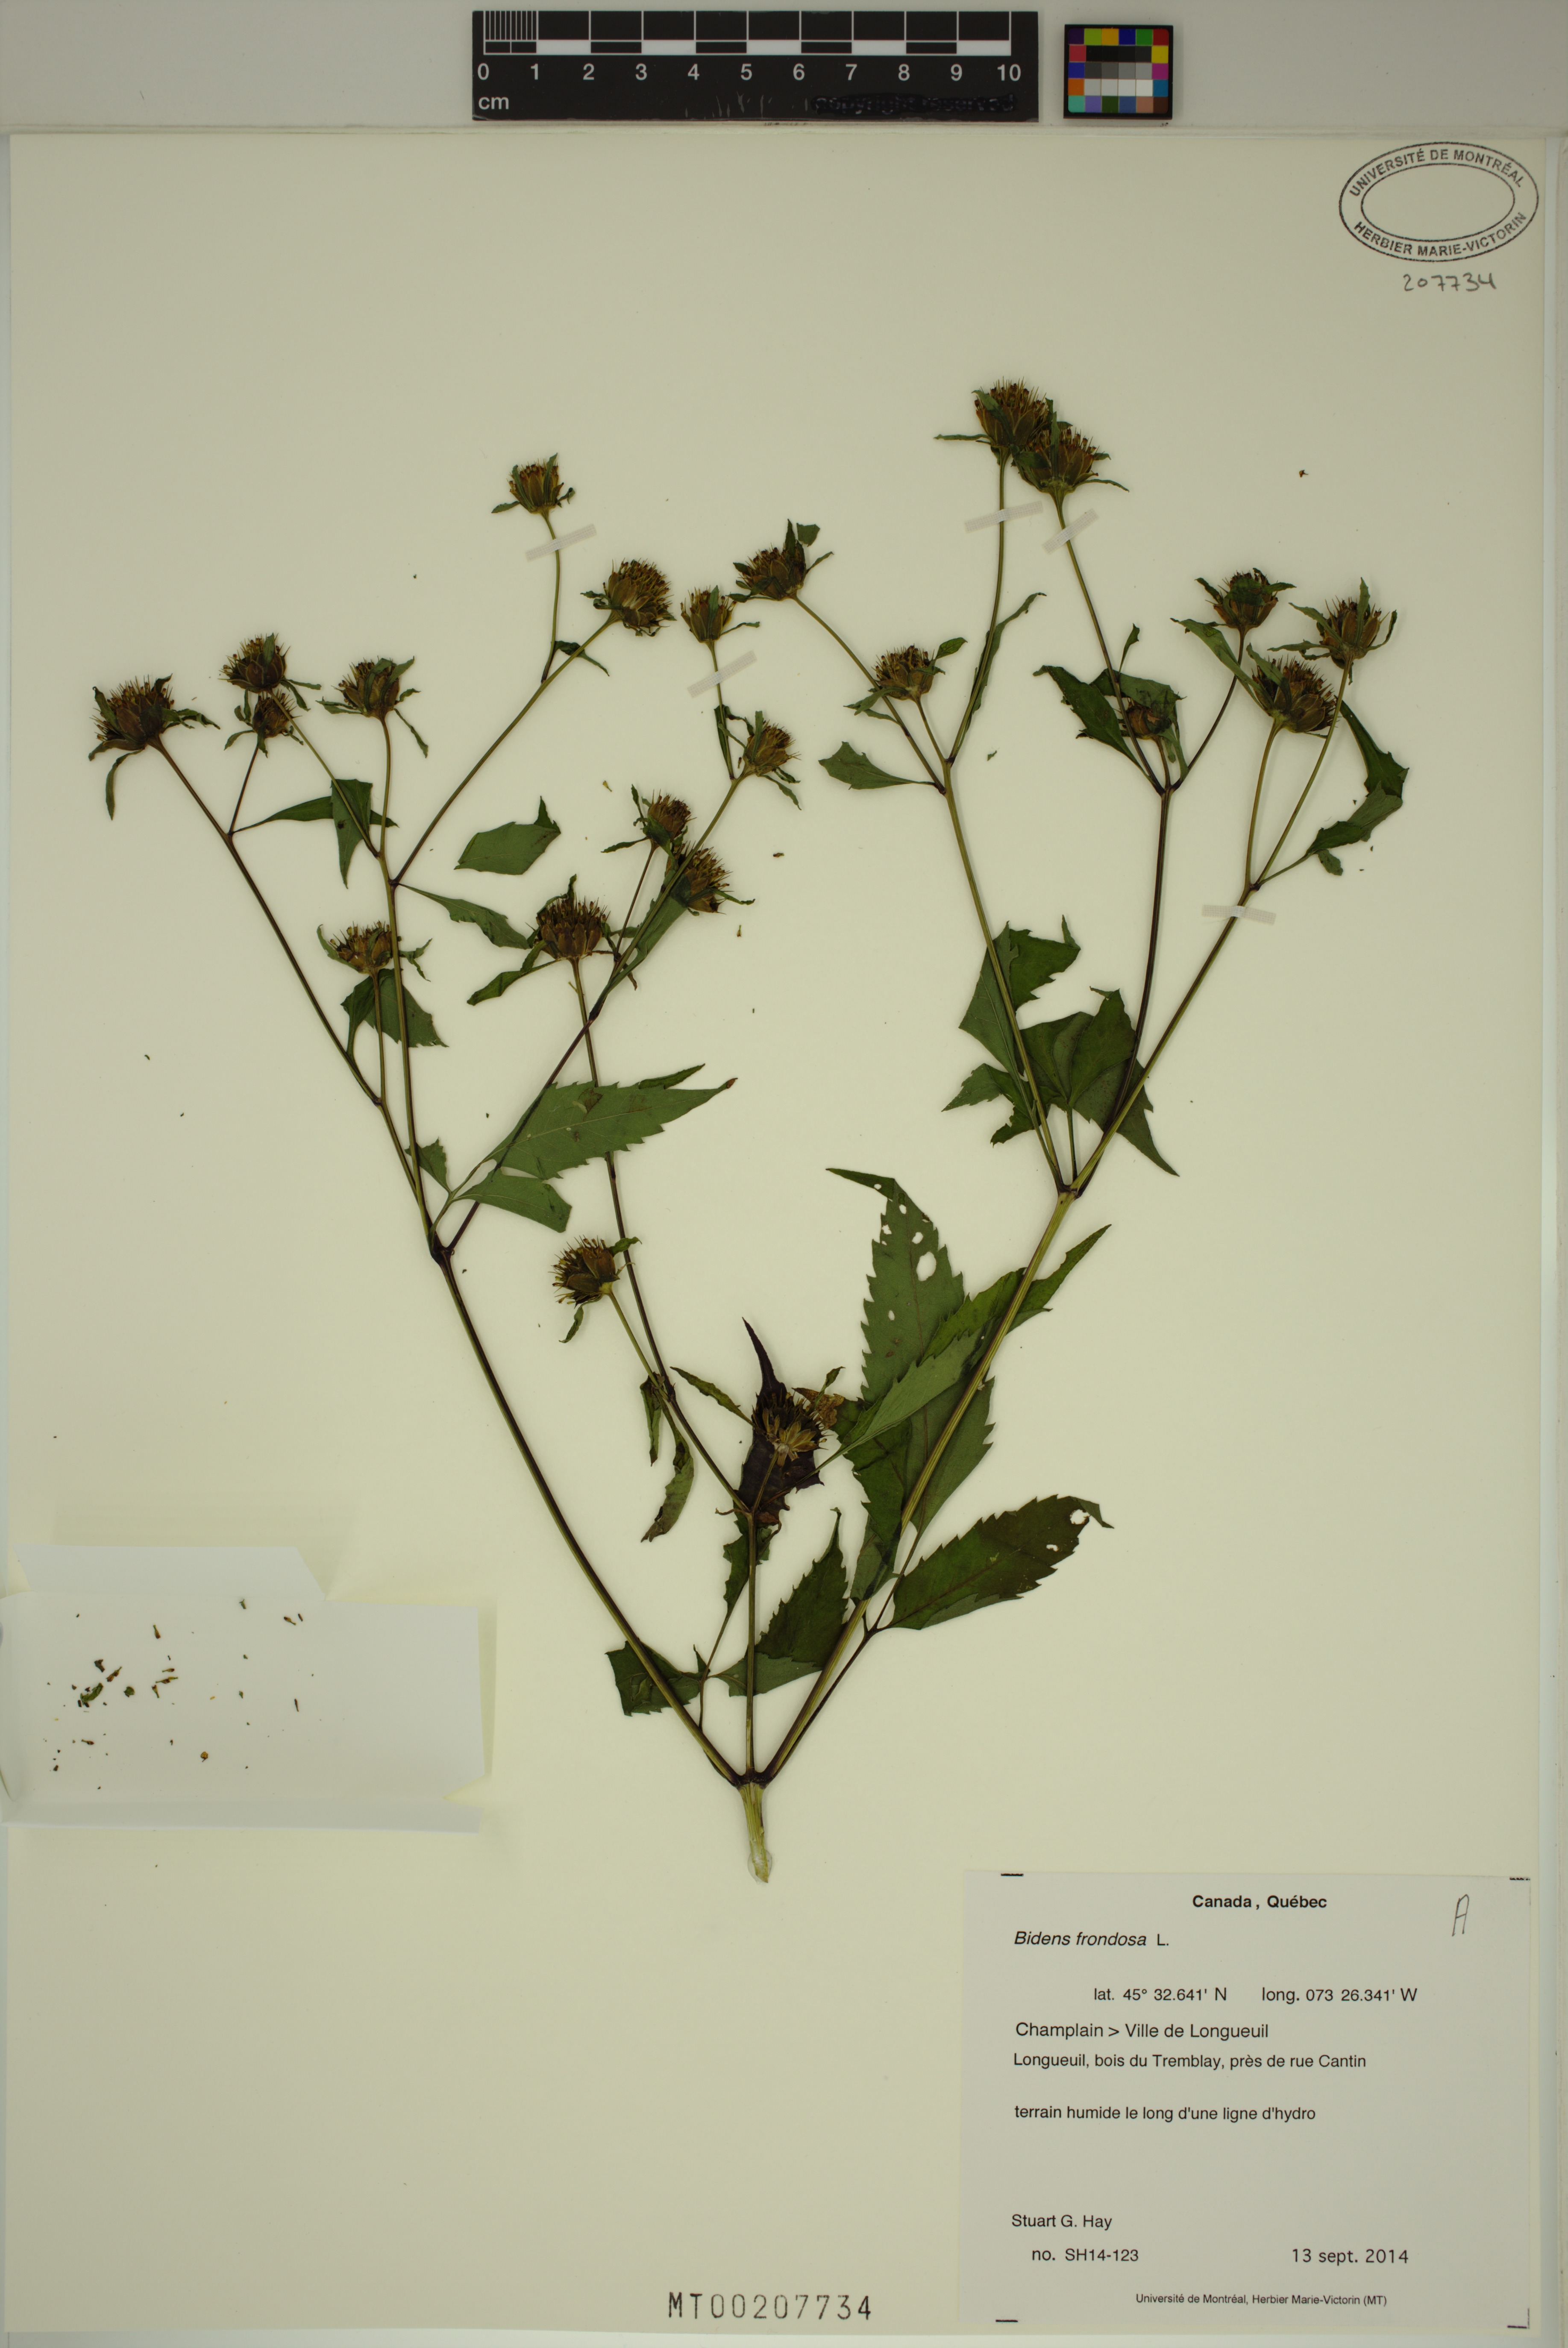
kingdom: Plantae
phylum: Tracheophyta
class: Magnoliopsida
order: Asterales
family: Asteraceae
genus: Bidens
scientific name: Bidens frondosa
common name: Beggarticks
